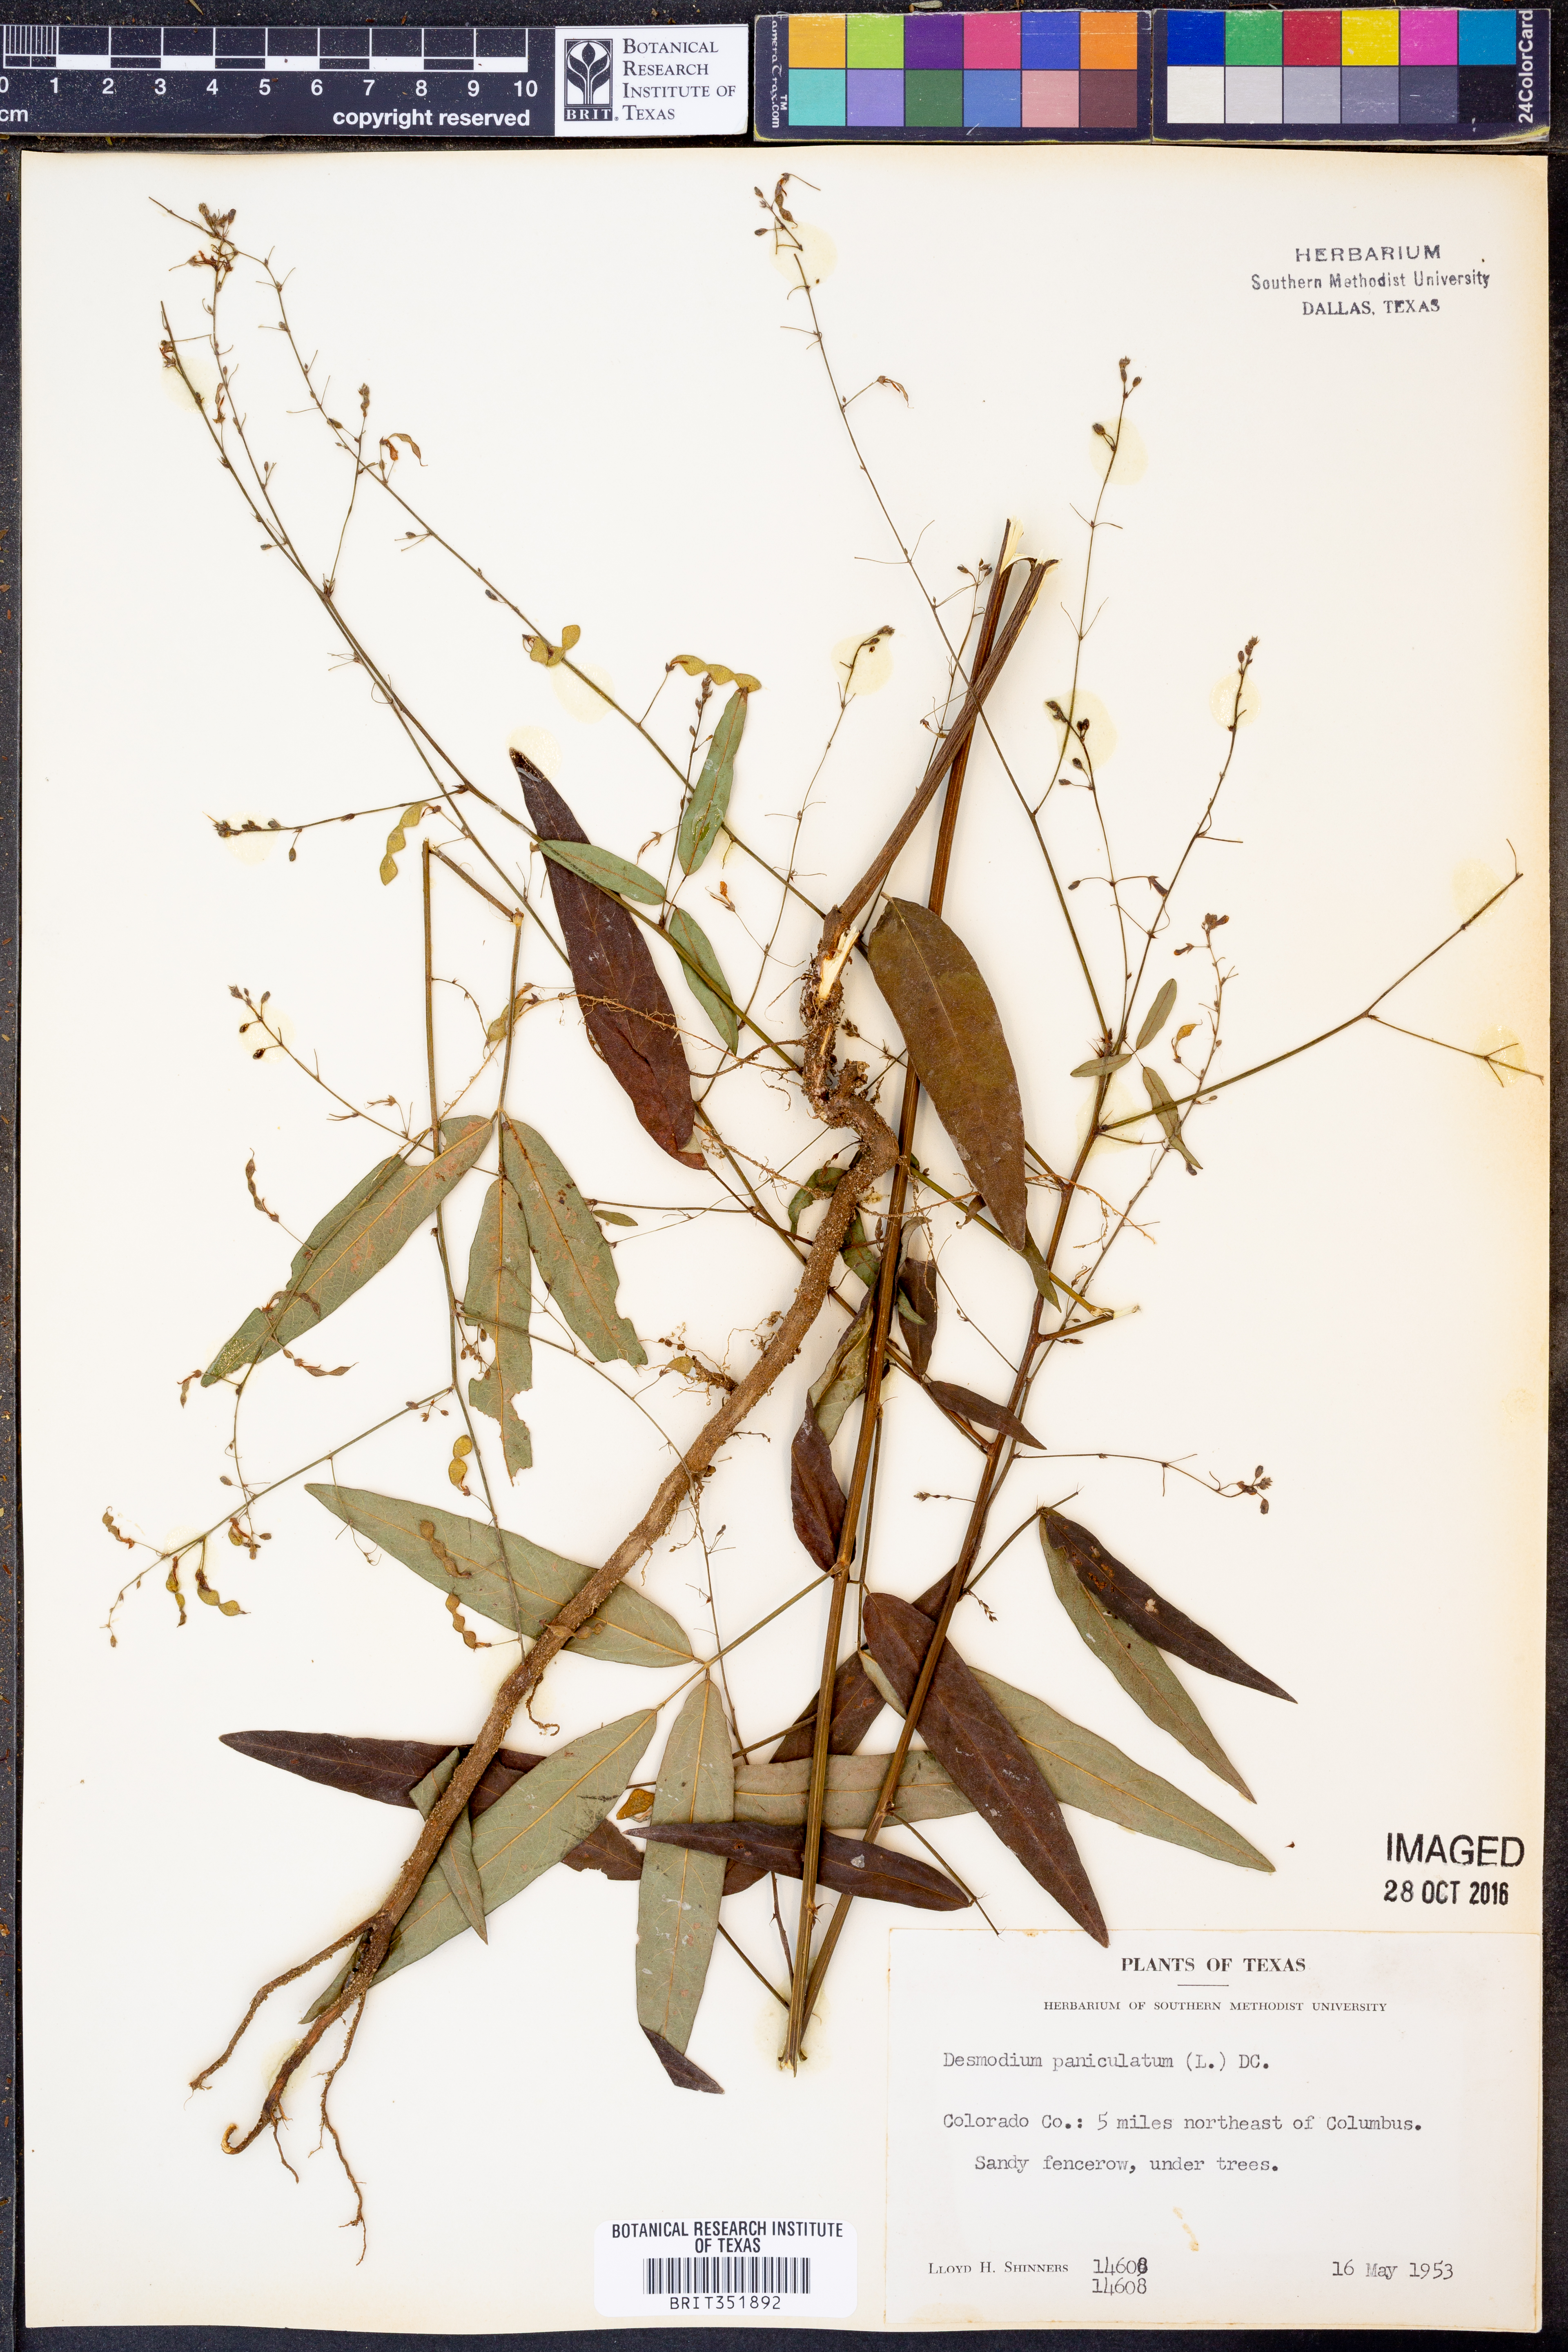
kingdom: Plantae
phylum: Tracheophyta
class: Magnoliopsida
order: Fabales
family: Fabaceae
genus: Desmodium
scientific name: Desmodium paniculatum
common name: Panicled tick-clover
